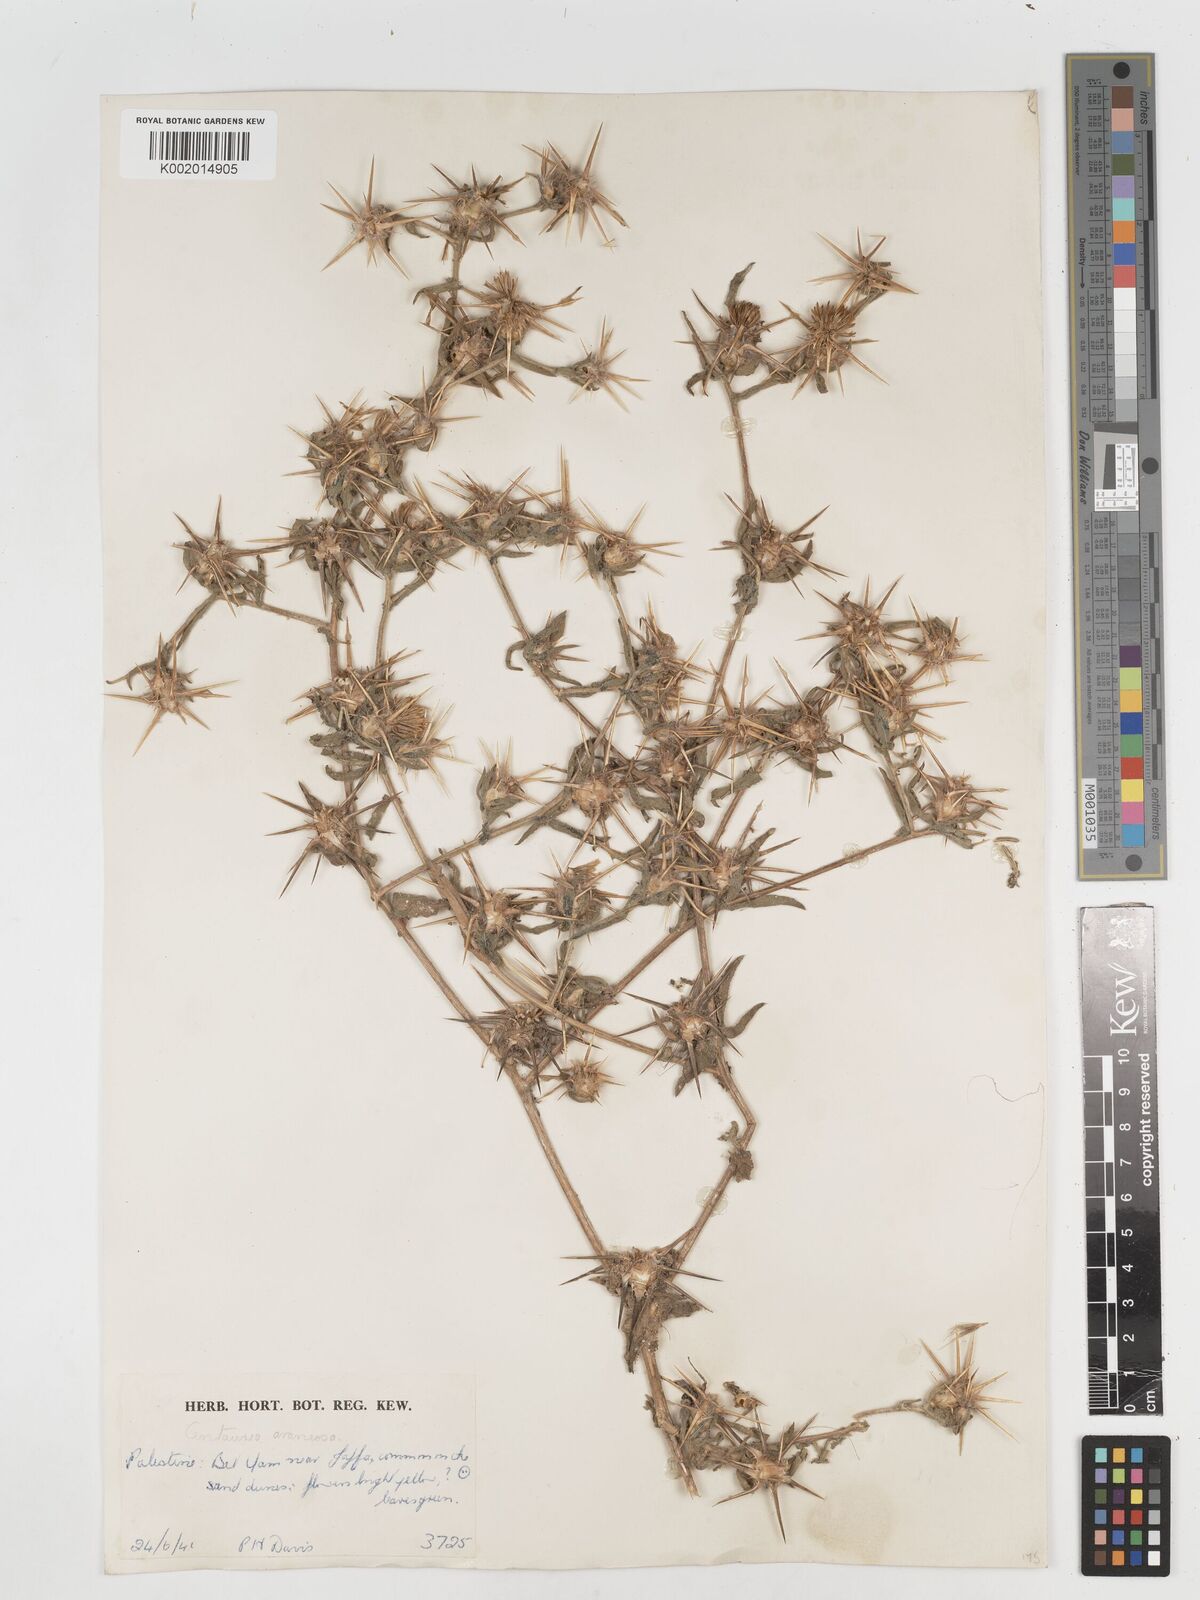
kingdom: Plantae
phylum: Tracheophyta
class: Magnoliopsida
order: Asterales
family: Asteraceae
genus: Centaurea
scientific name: Centaurea procurrens
